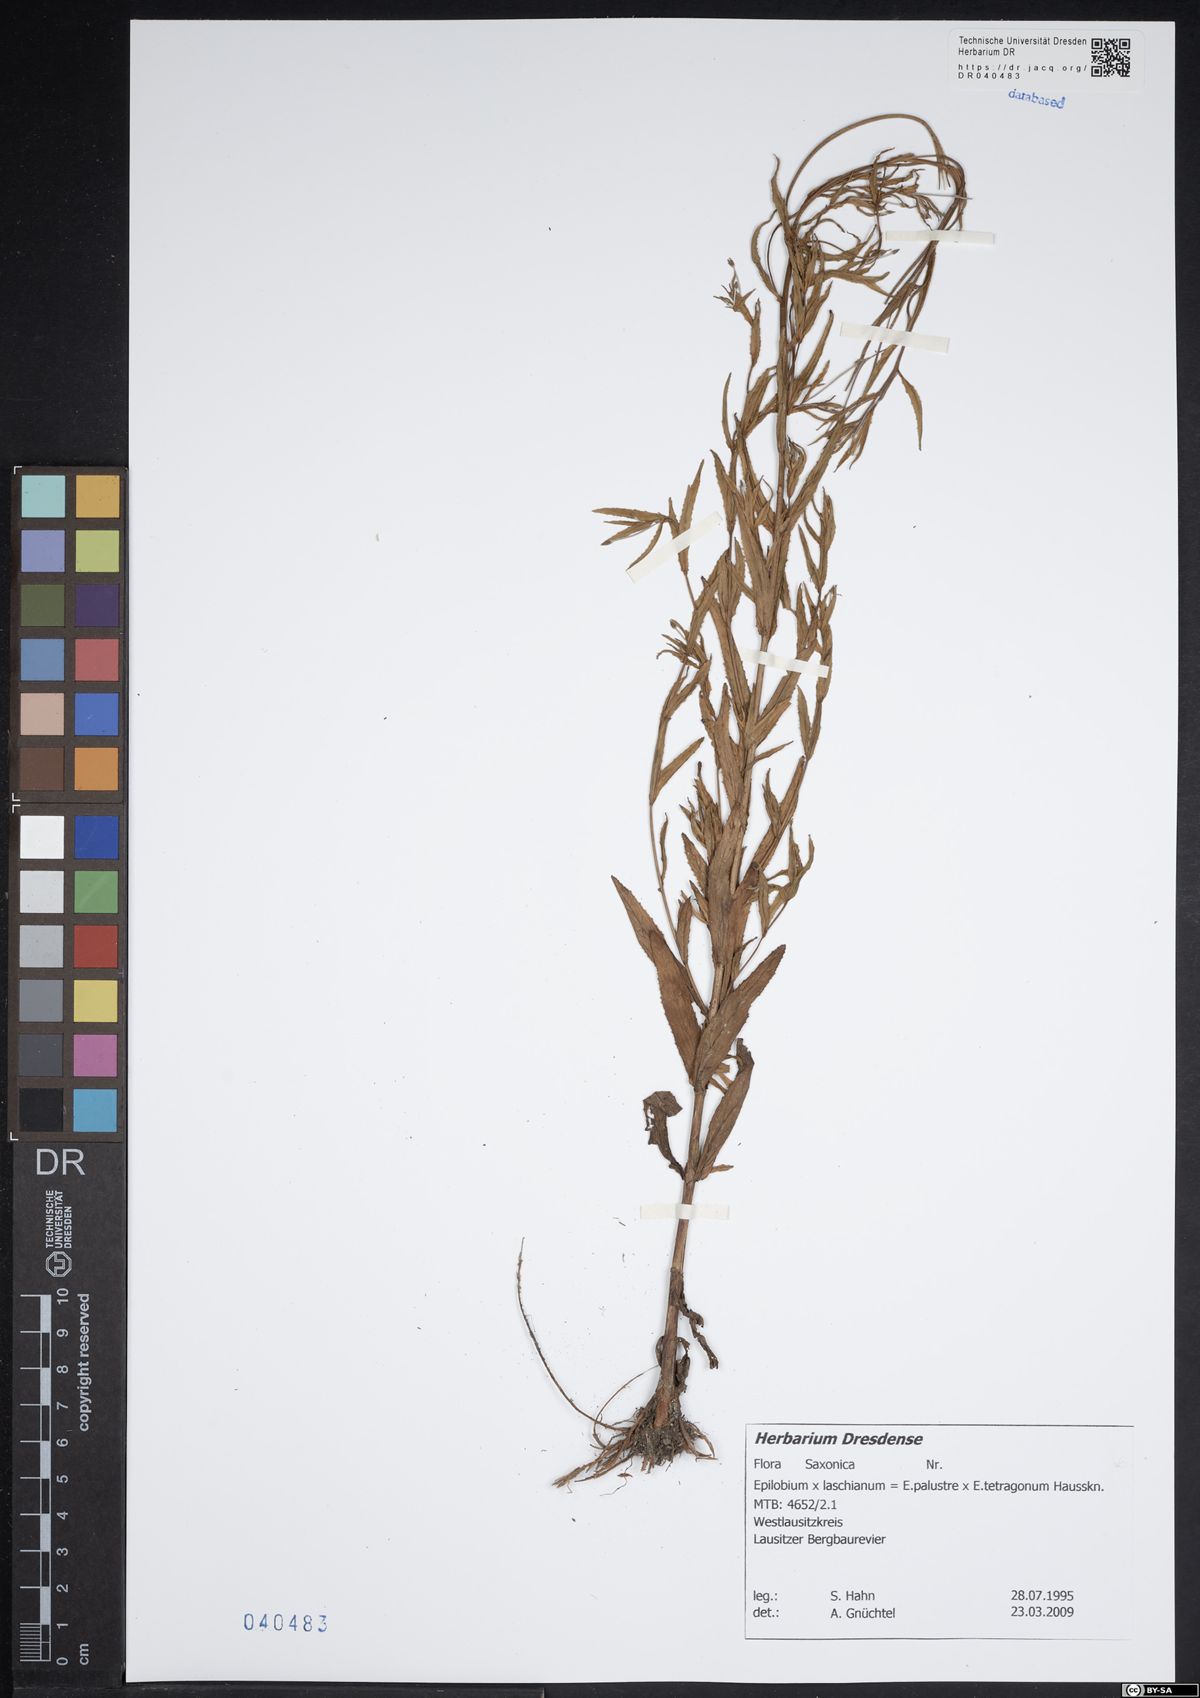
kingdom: Plantae
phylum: Tracheophyta
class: Magnoliopsida
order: Myrtales
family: Onagraceae
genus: Epilobium
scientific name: Epilobium laschianum
